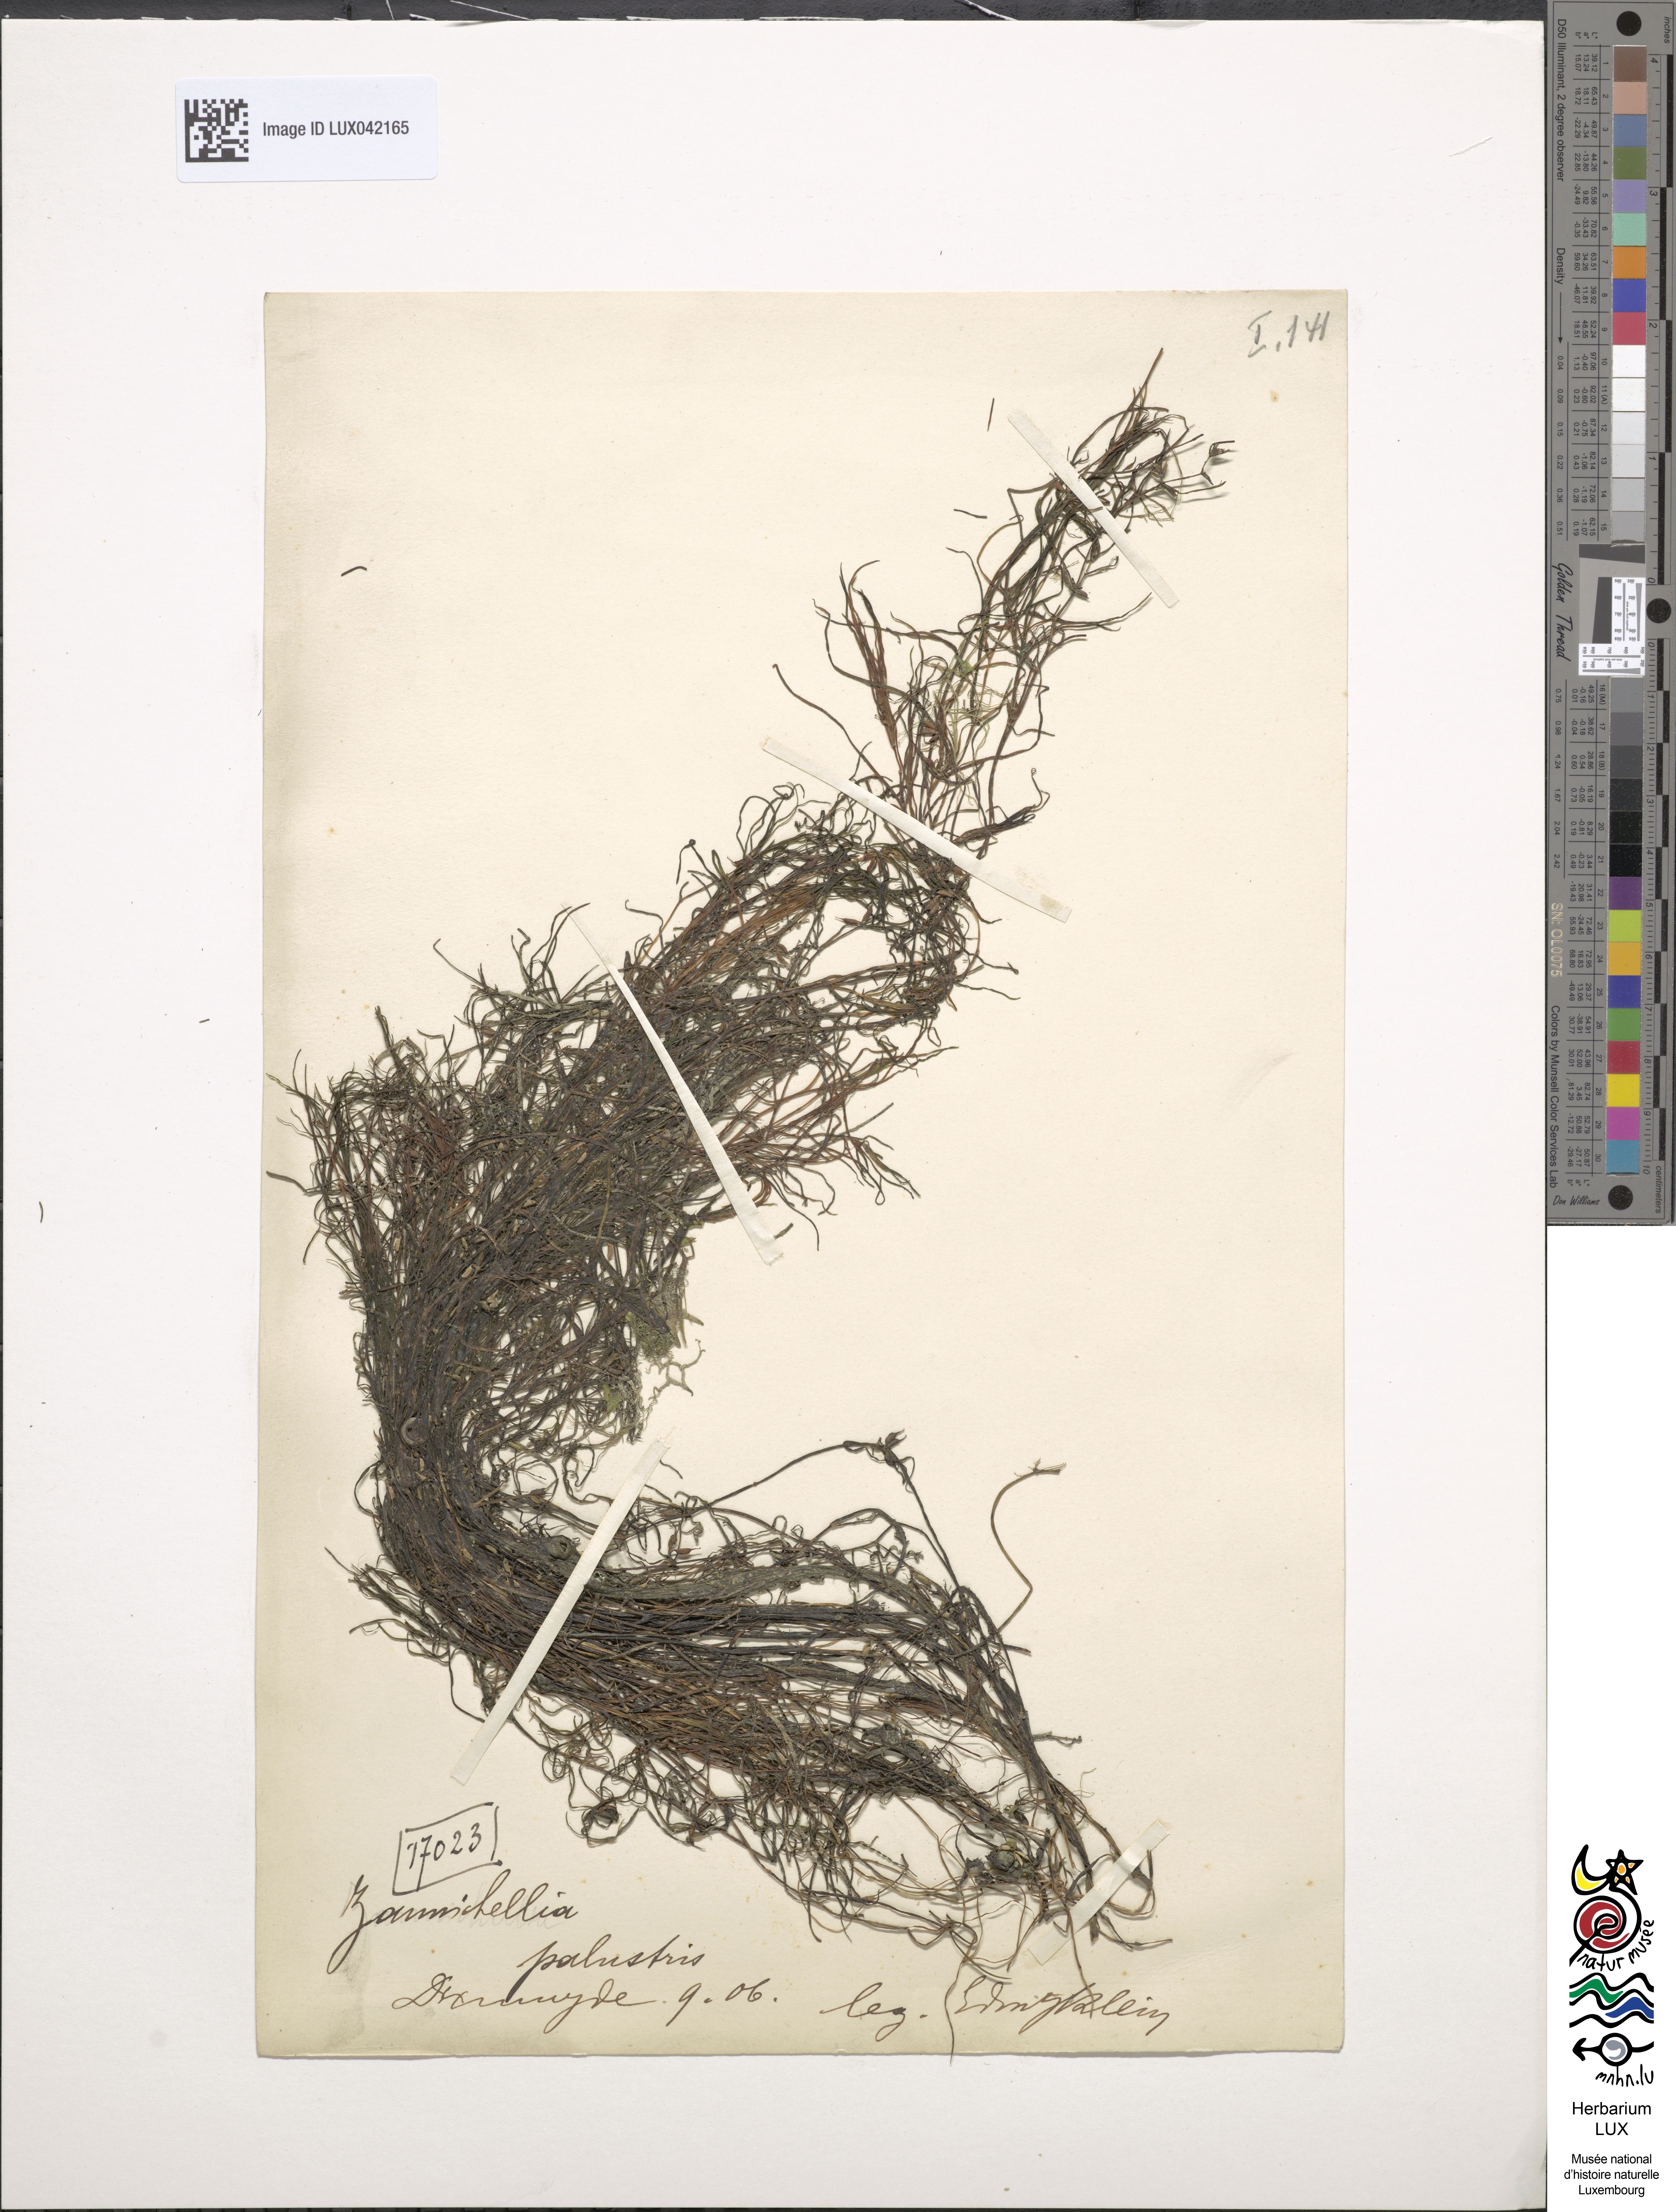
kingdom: Plantae
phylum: Tracheophyta
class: Liliopsida
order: Alismatales
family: Potamogetonaceae
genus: Zannichellia
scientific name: Zannichellia palustris
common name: Horned pondweed
